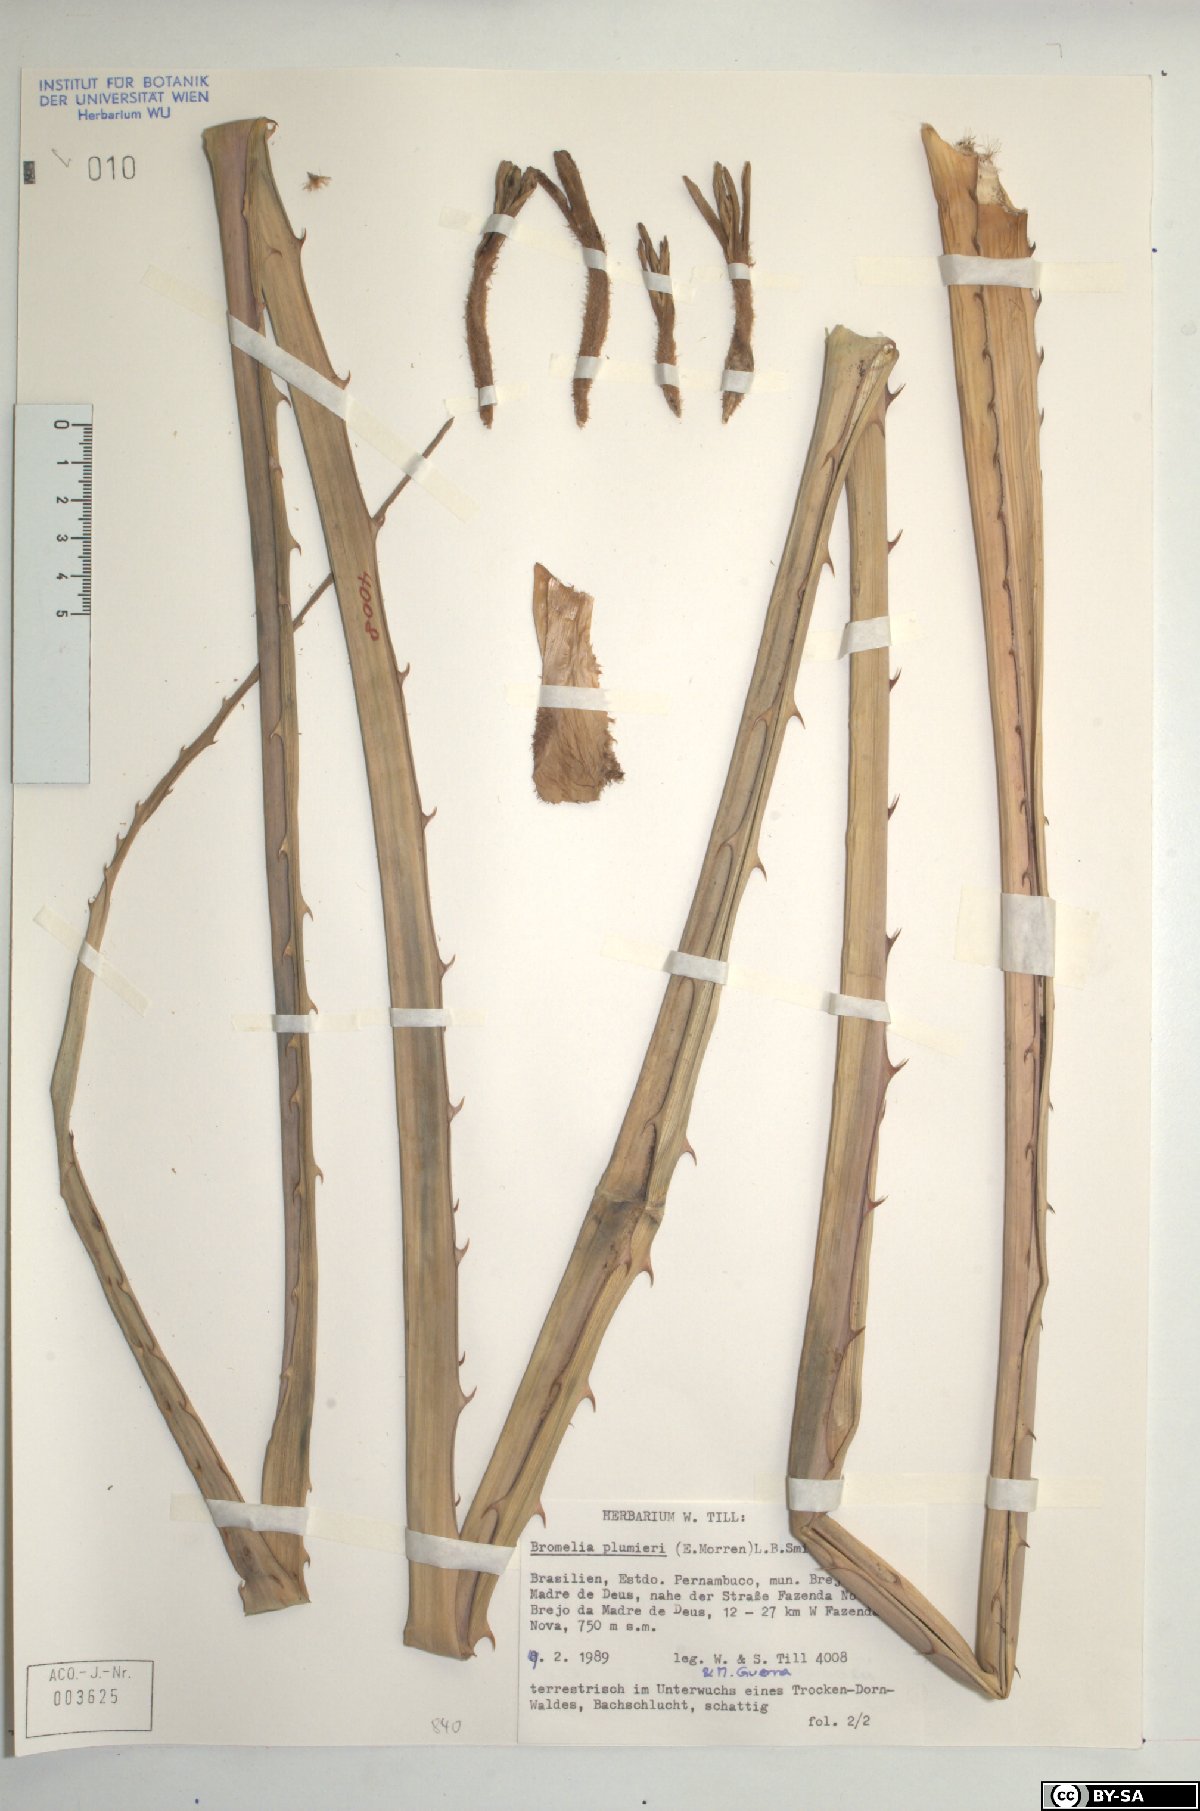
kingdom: Plantae
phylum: Tracheophyta
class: Liliopsida
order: Poales
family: Bromeliaceae
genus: Bromelia
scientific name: Bromelia karatas
